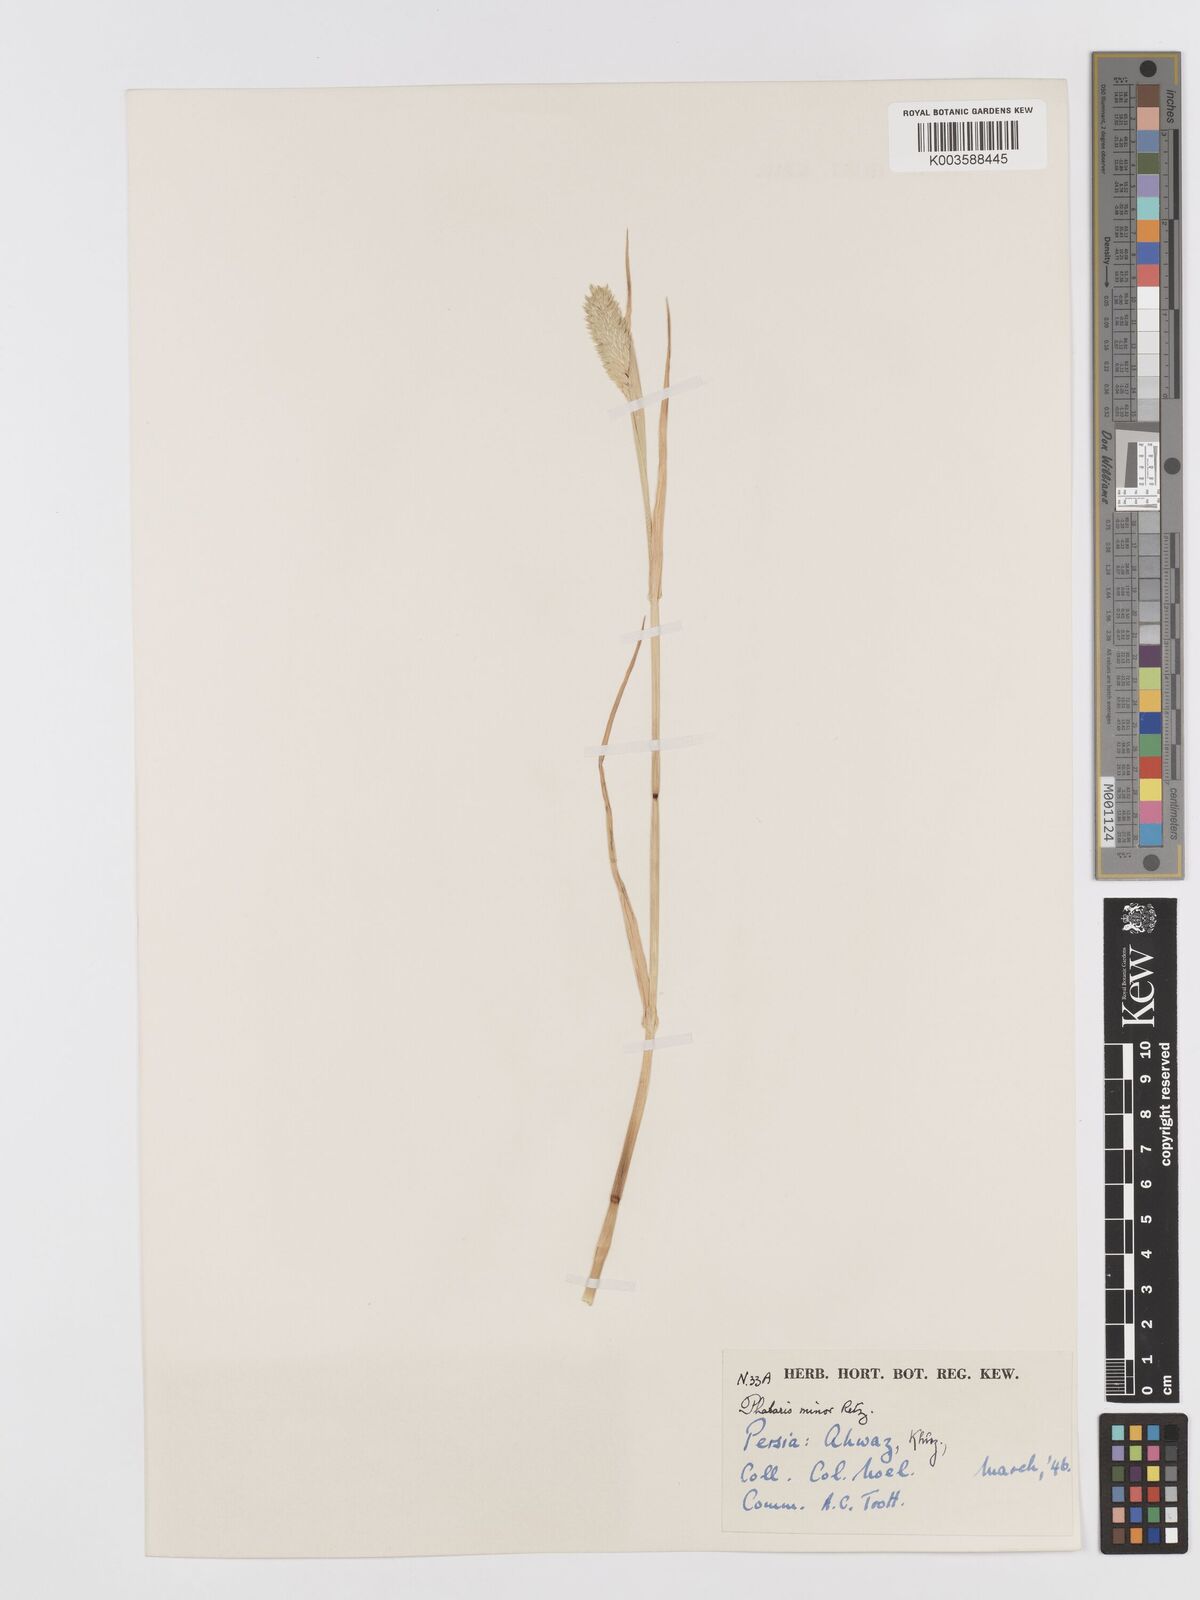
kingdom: Plantae
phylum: Tracheophyta
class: Liliopsida
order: Poales
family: Poaceae
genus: Phalaris
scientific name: Phalaris minor
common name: Littleseed canarygrass
